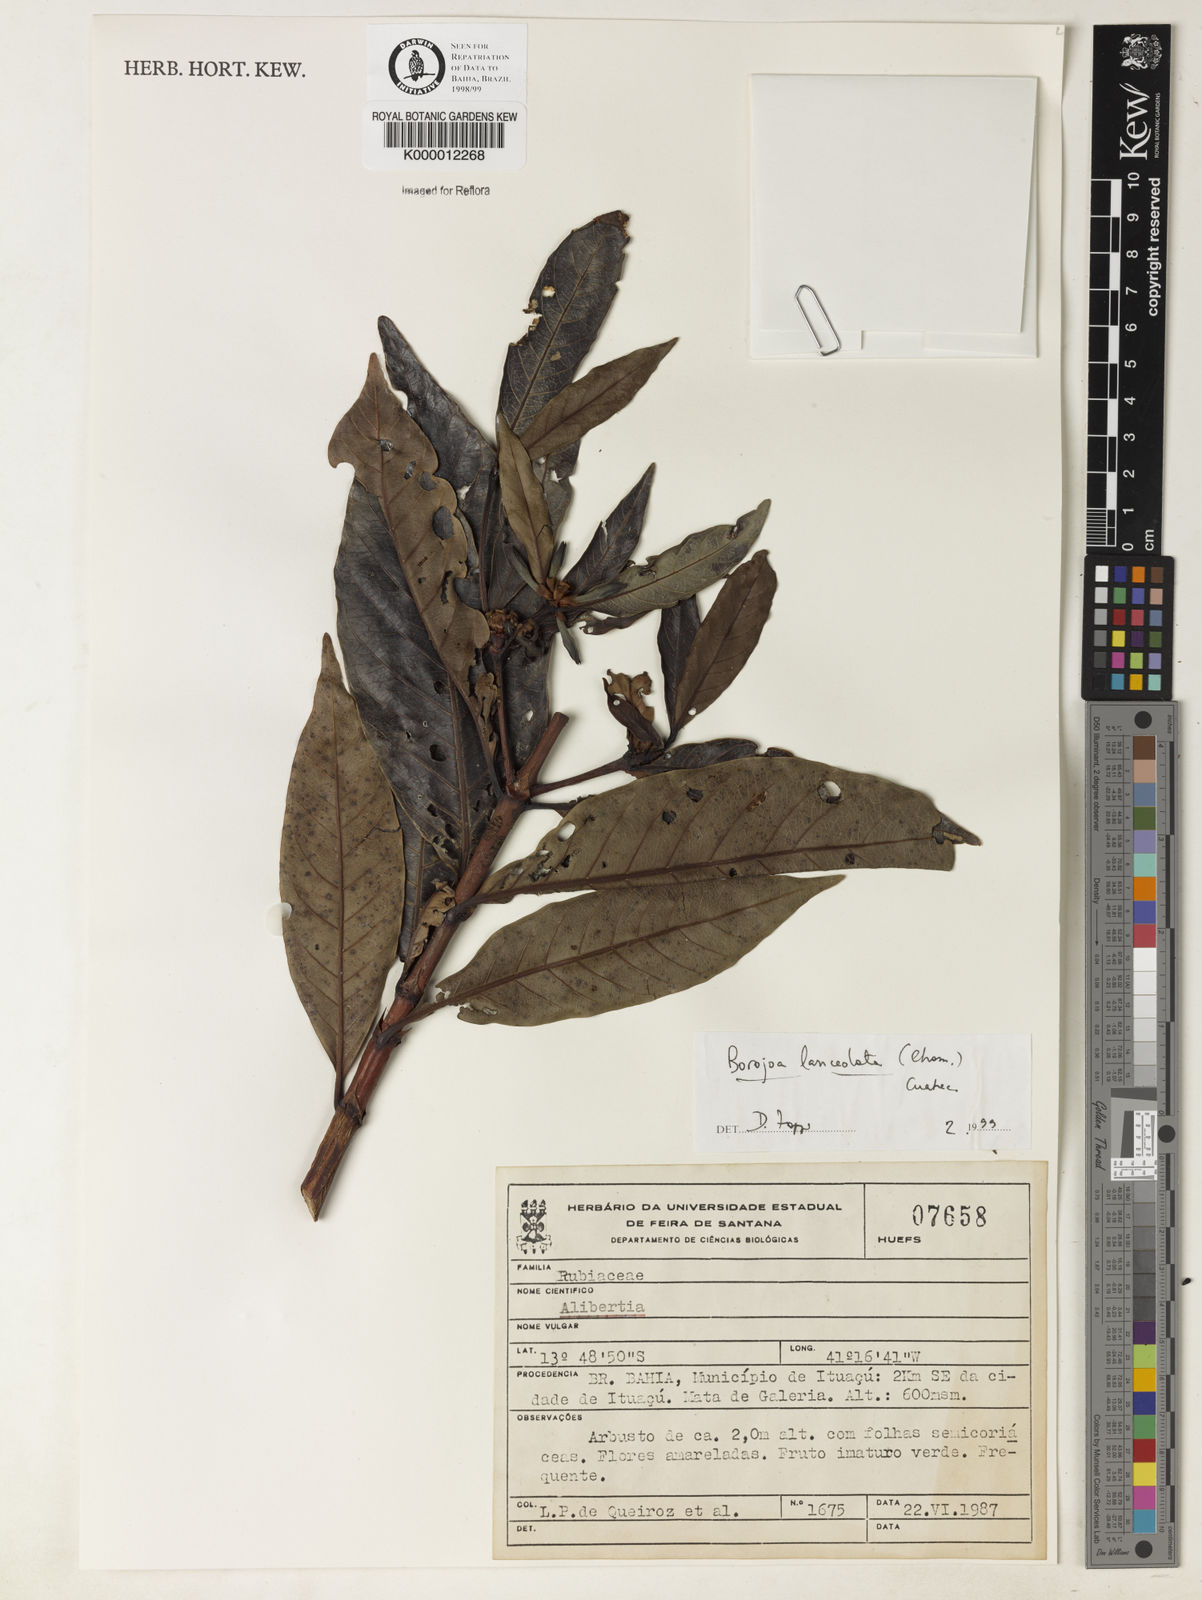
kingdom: Plantae
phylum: Tracheophyta
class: Magnoliopsida
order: Gentianales
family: Rubiaceae
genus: Alibertia
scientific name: Alibertia edulis
